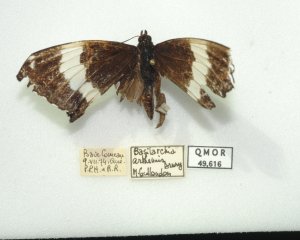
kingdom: Animalia
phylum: Arthropoda
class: Insecta
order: Lepidoptera
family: Nymphalidae
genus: Limenitis
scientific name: Limenitis arthemis
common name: Red-spotted Admiral
